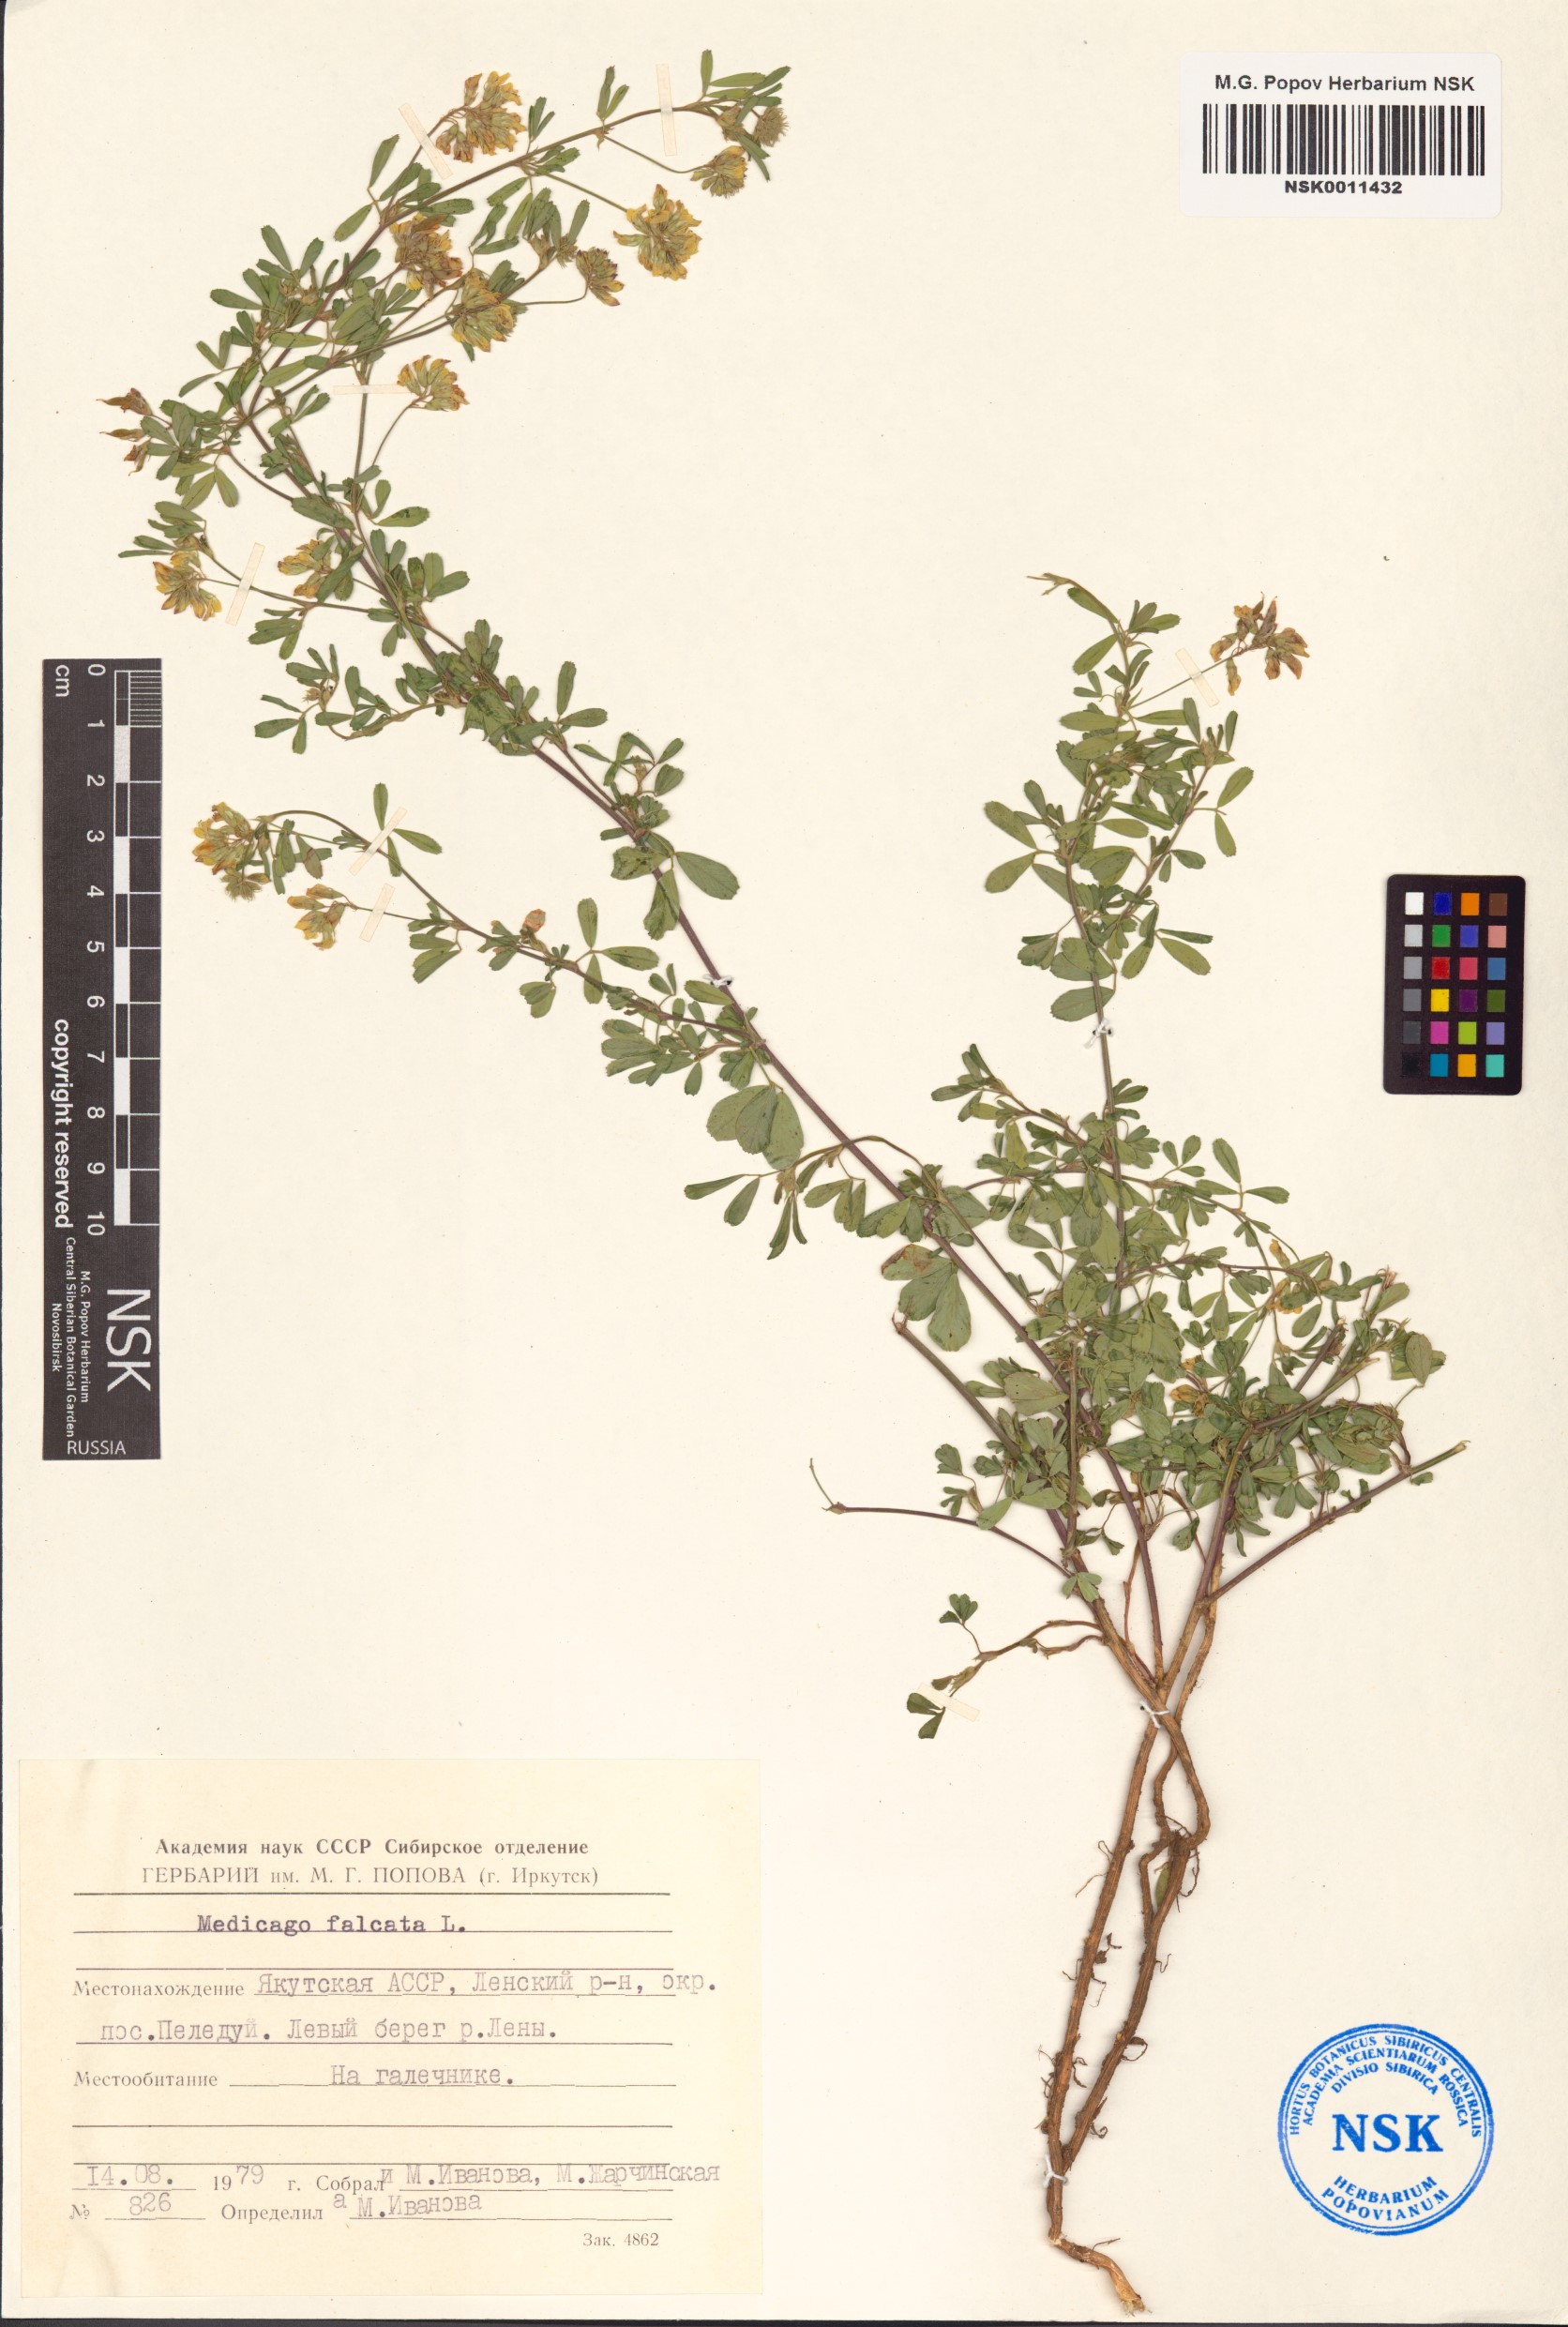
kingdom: Plantae
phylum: Tracheophyta
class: Magnoliopsida
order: Fabales
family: Fabaceae
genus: Medicago
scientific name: Medicago falcata
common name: Sickle medick
